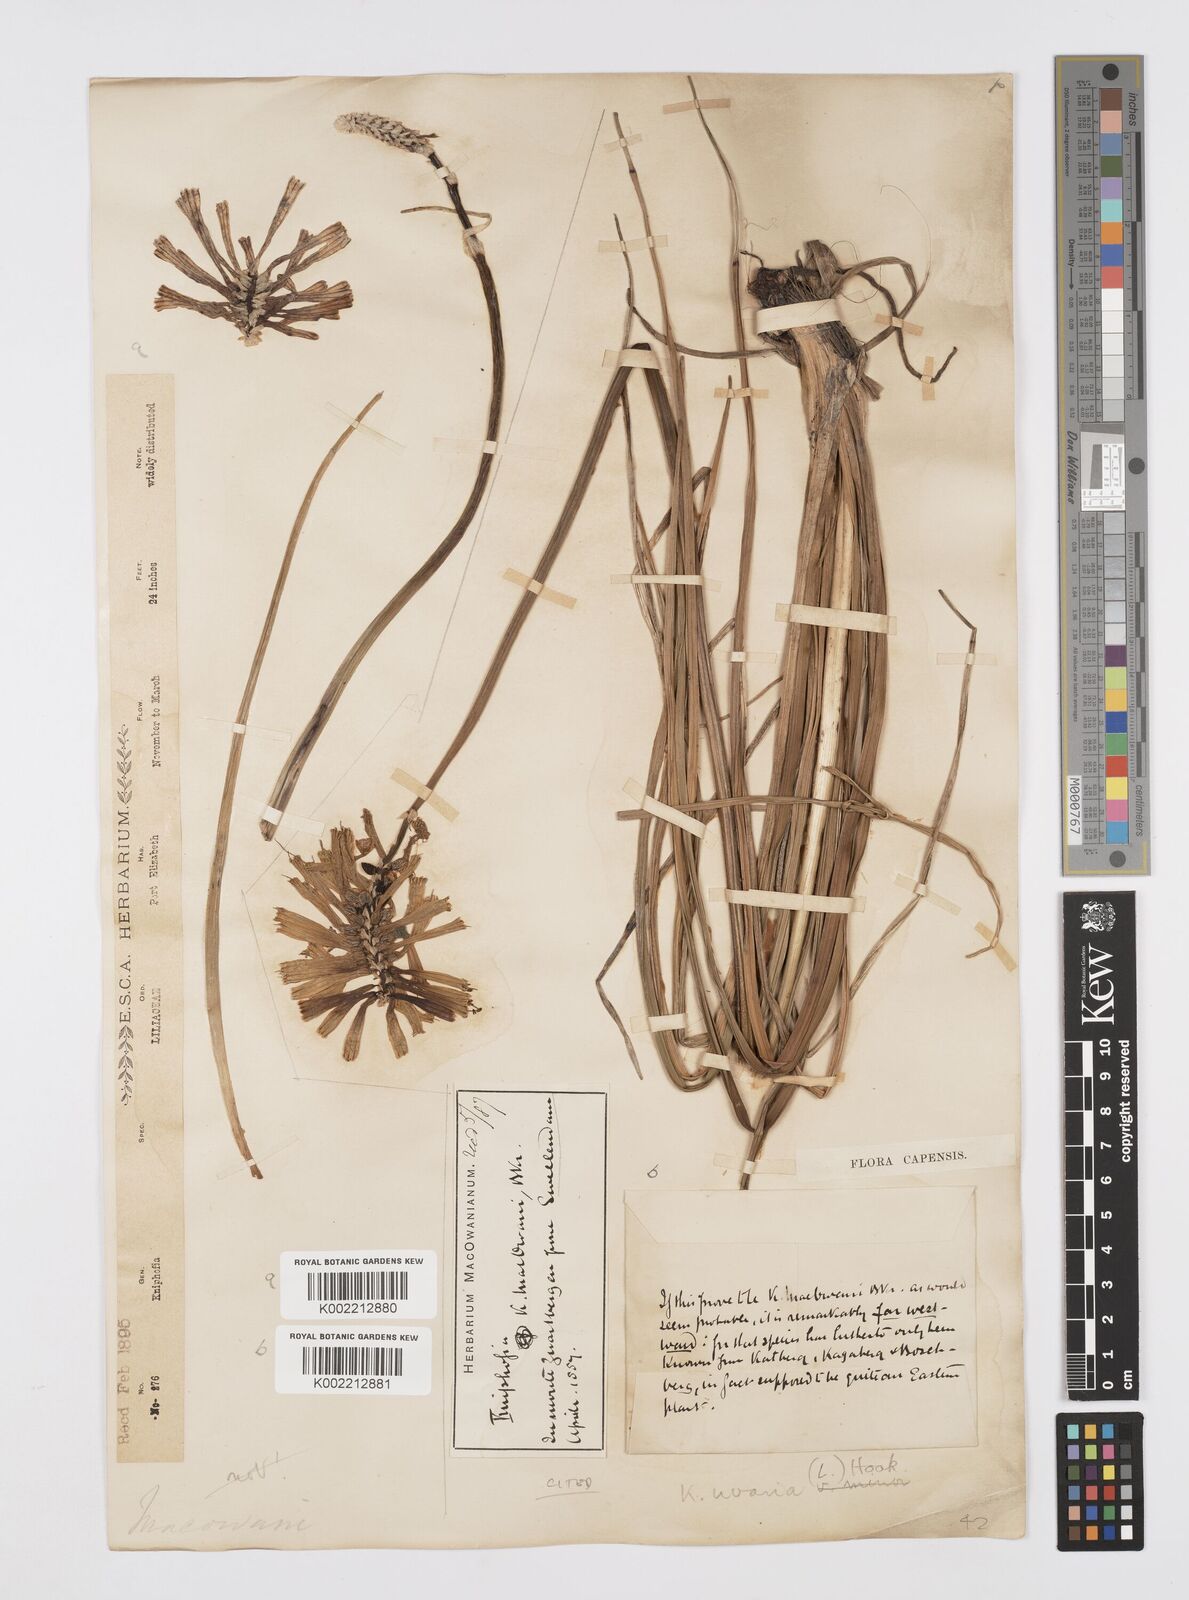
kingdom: Plantae
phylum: Tracheophyta
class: Liliopsida
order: Asparagales
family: Asphodelaceae
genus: Kniphofia
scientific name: Kniphofia uvaria
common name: Red-hot-poker
